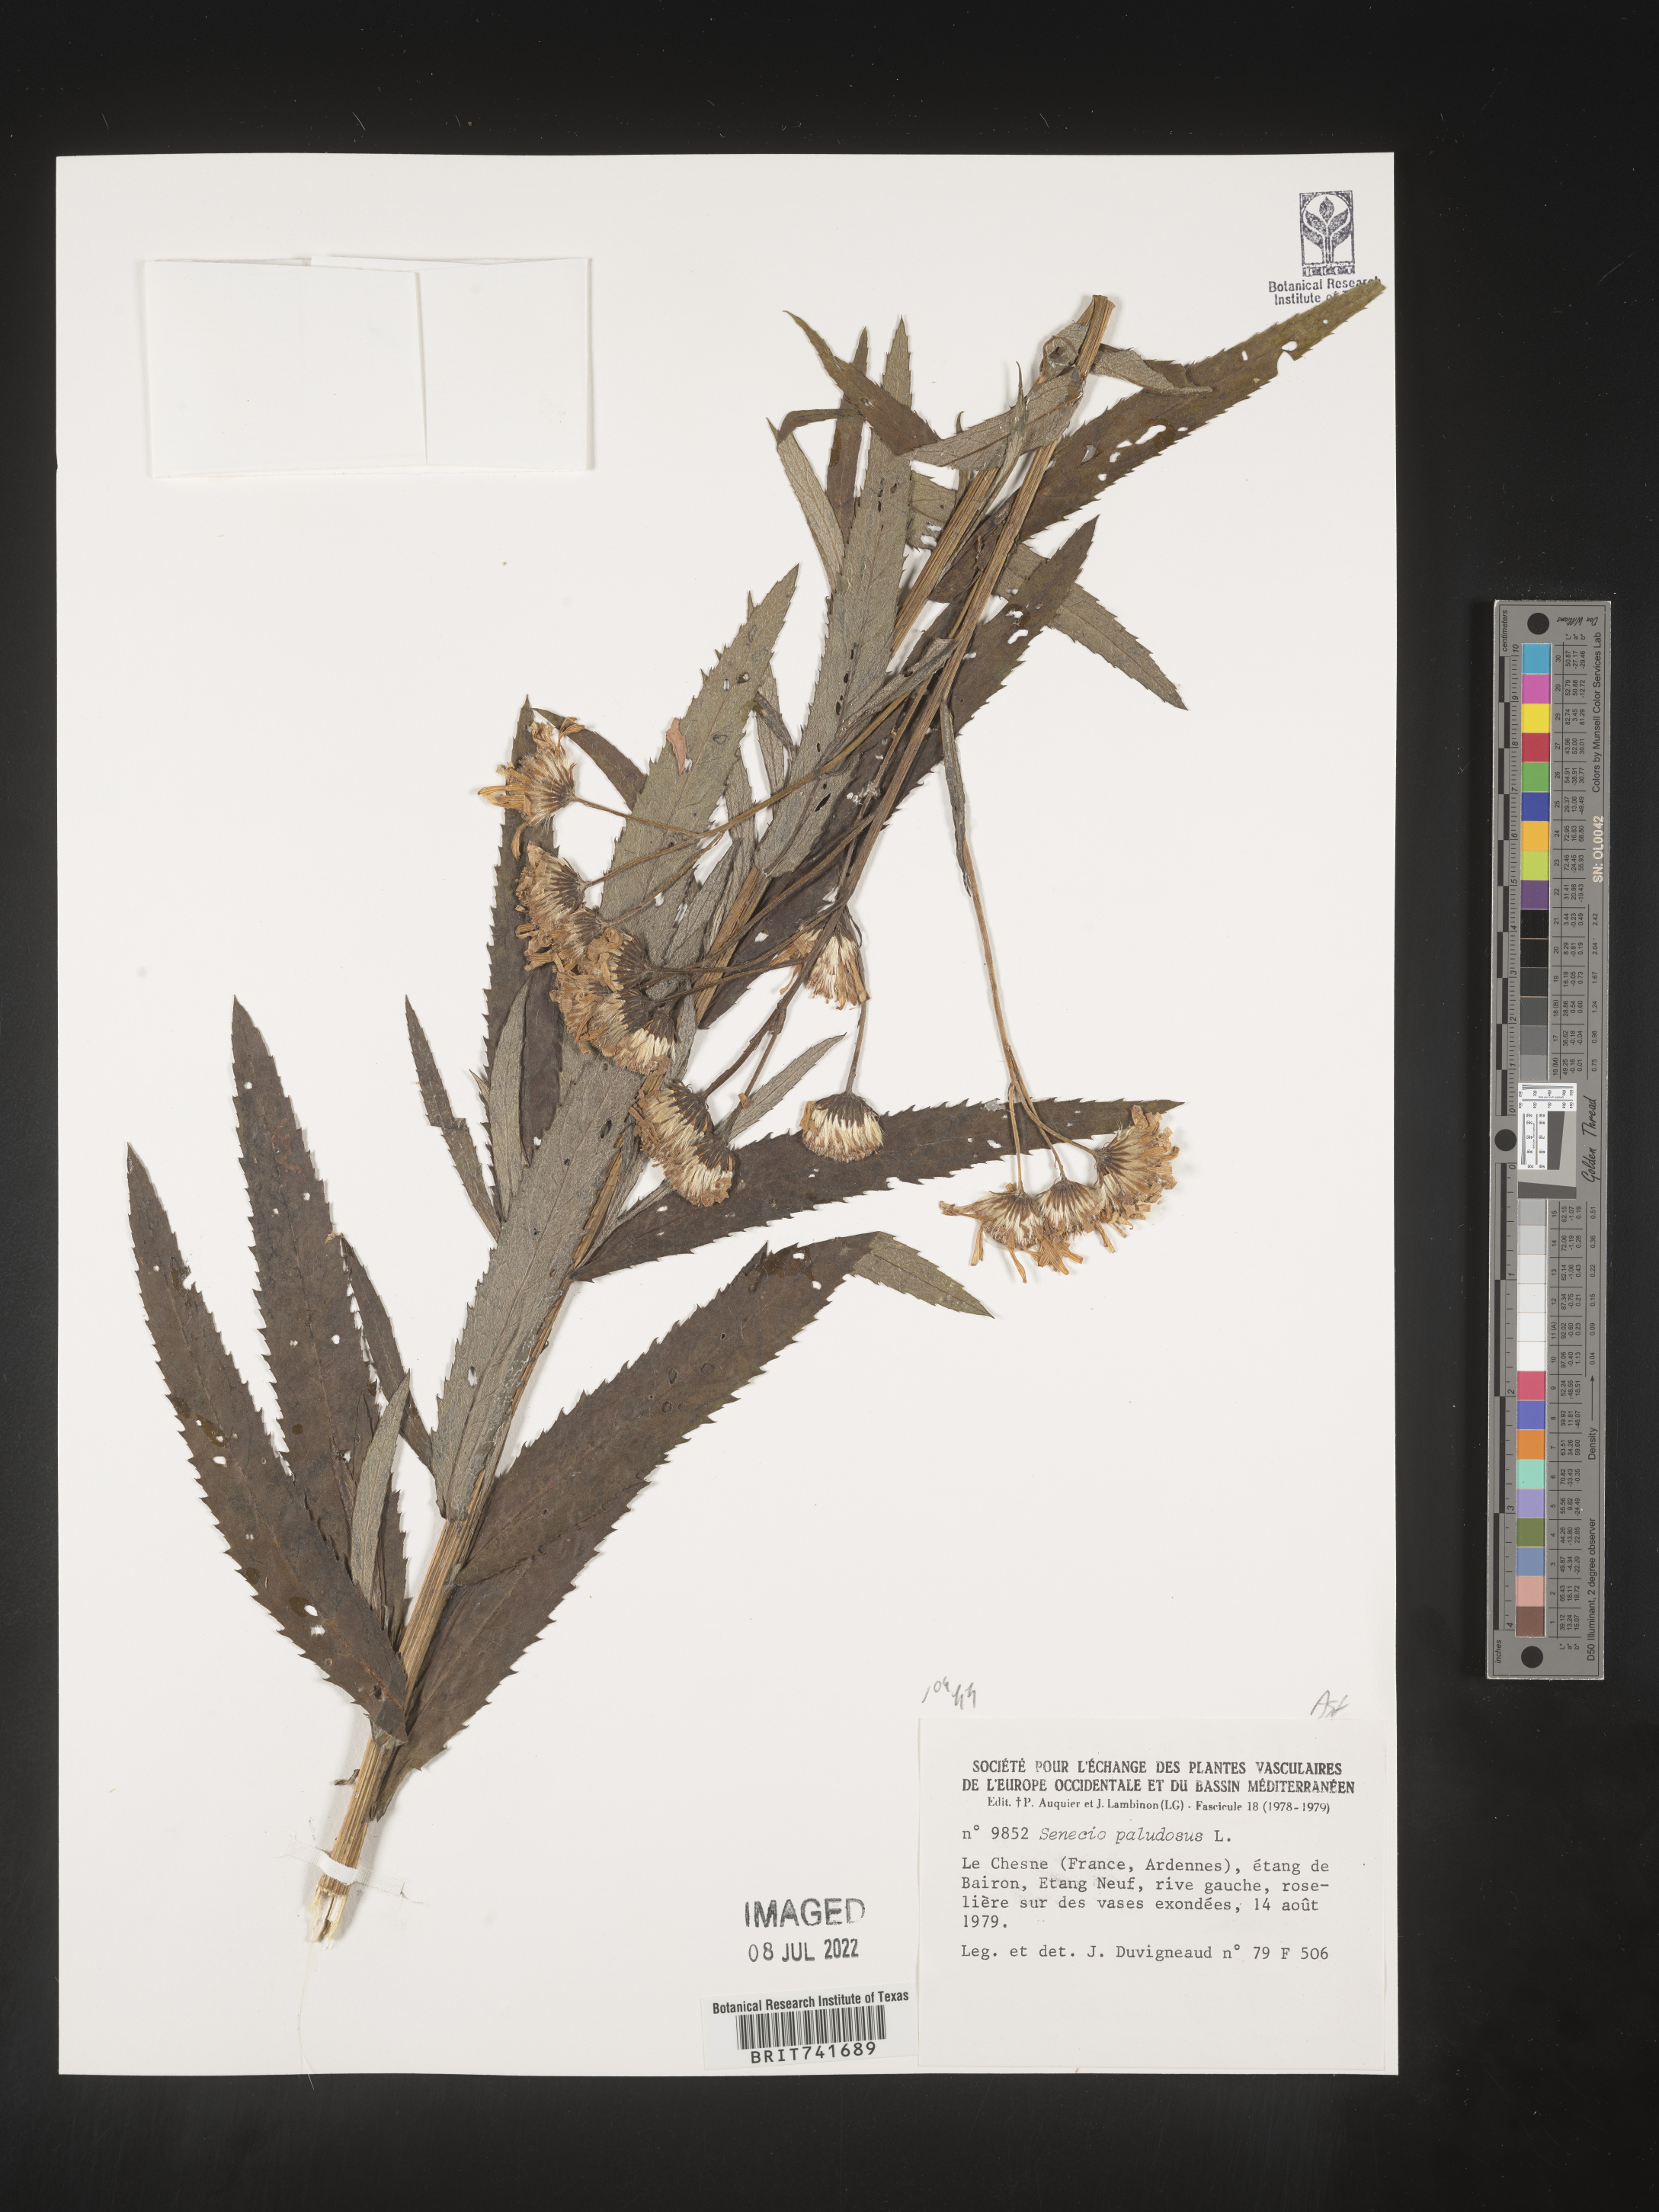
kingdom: Plantae
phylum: Tracheophyta
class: Magnoliopsida
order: Asterales
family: Asteraceae
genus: Senecio
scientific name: Senecio
